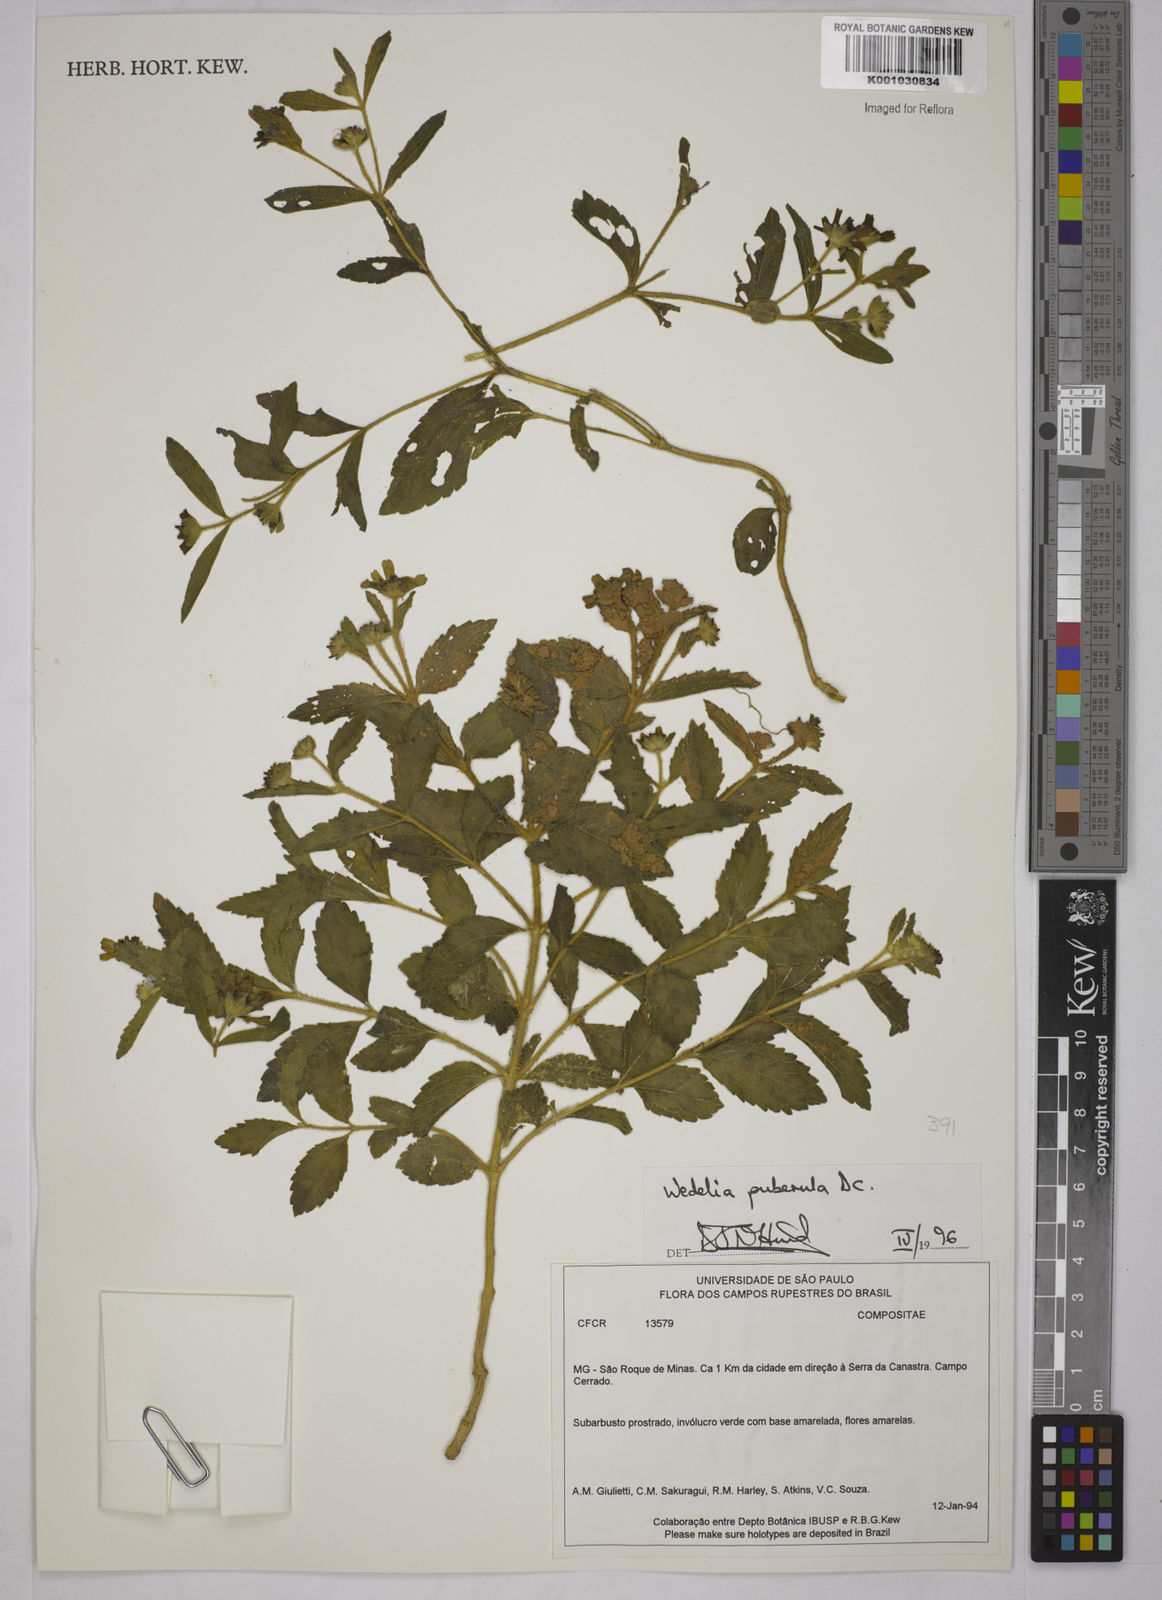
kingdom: Plantae
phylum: Tracheophyta
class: Magnoliopsida
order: Asterales
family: Asteraceae
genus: Wedelia
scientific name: Wedelia puberula
